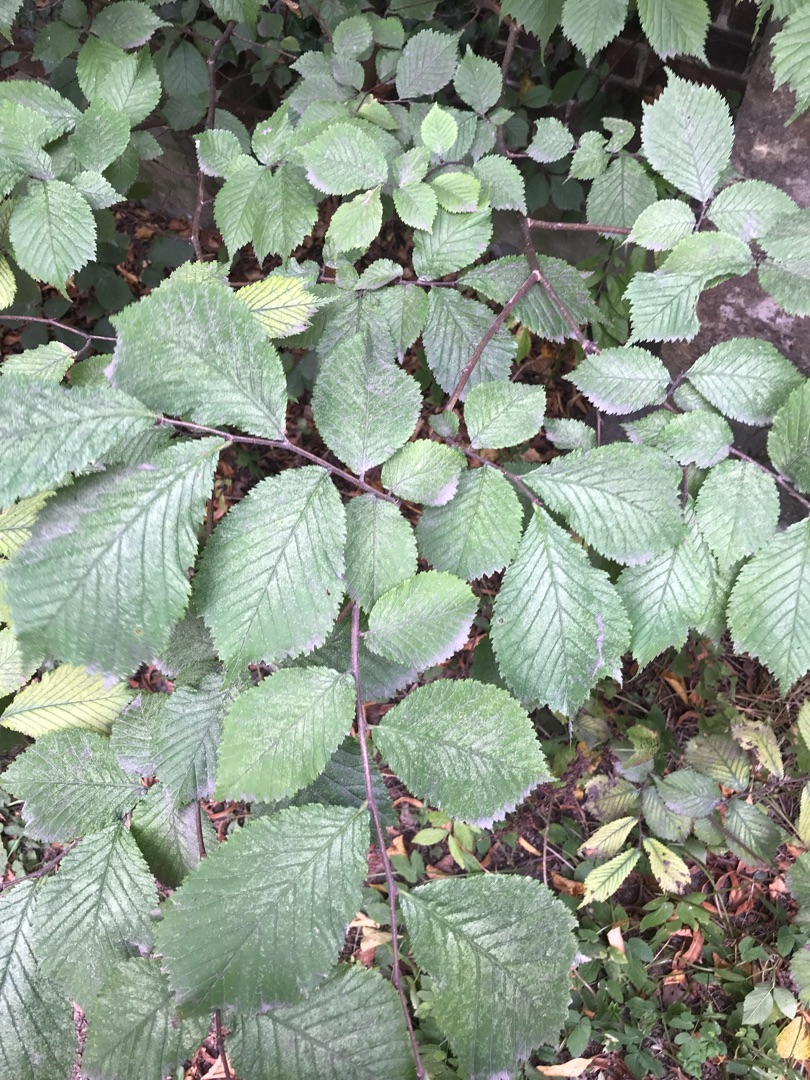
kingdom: Plantae
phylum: Tracheophyta
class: Magnoliopsida
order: Rosales
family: Ulmaceae
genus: Ulmus
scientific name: Ulmus glabra
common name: Skov-elm/storbladet elm
